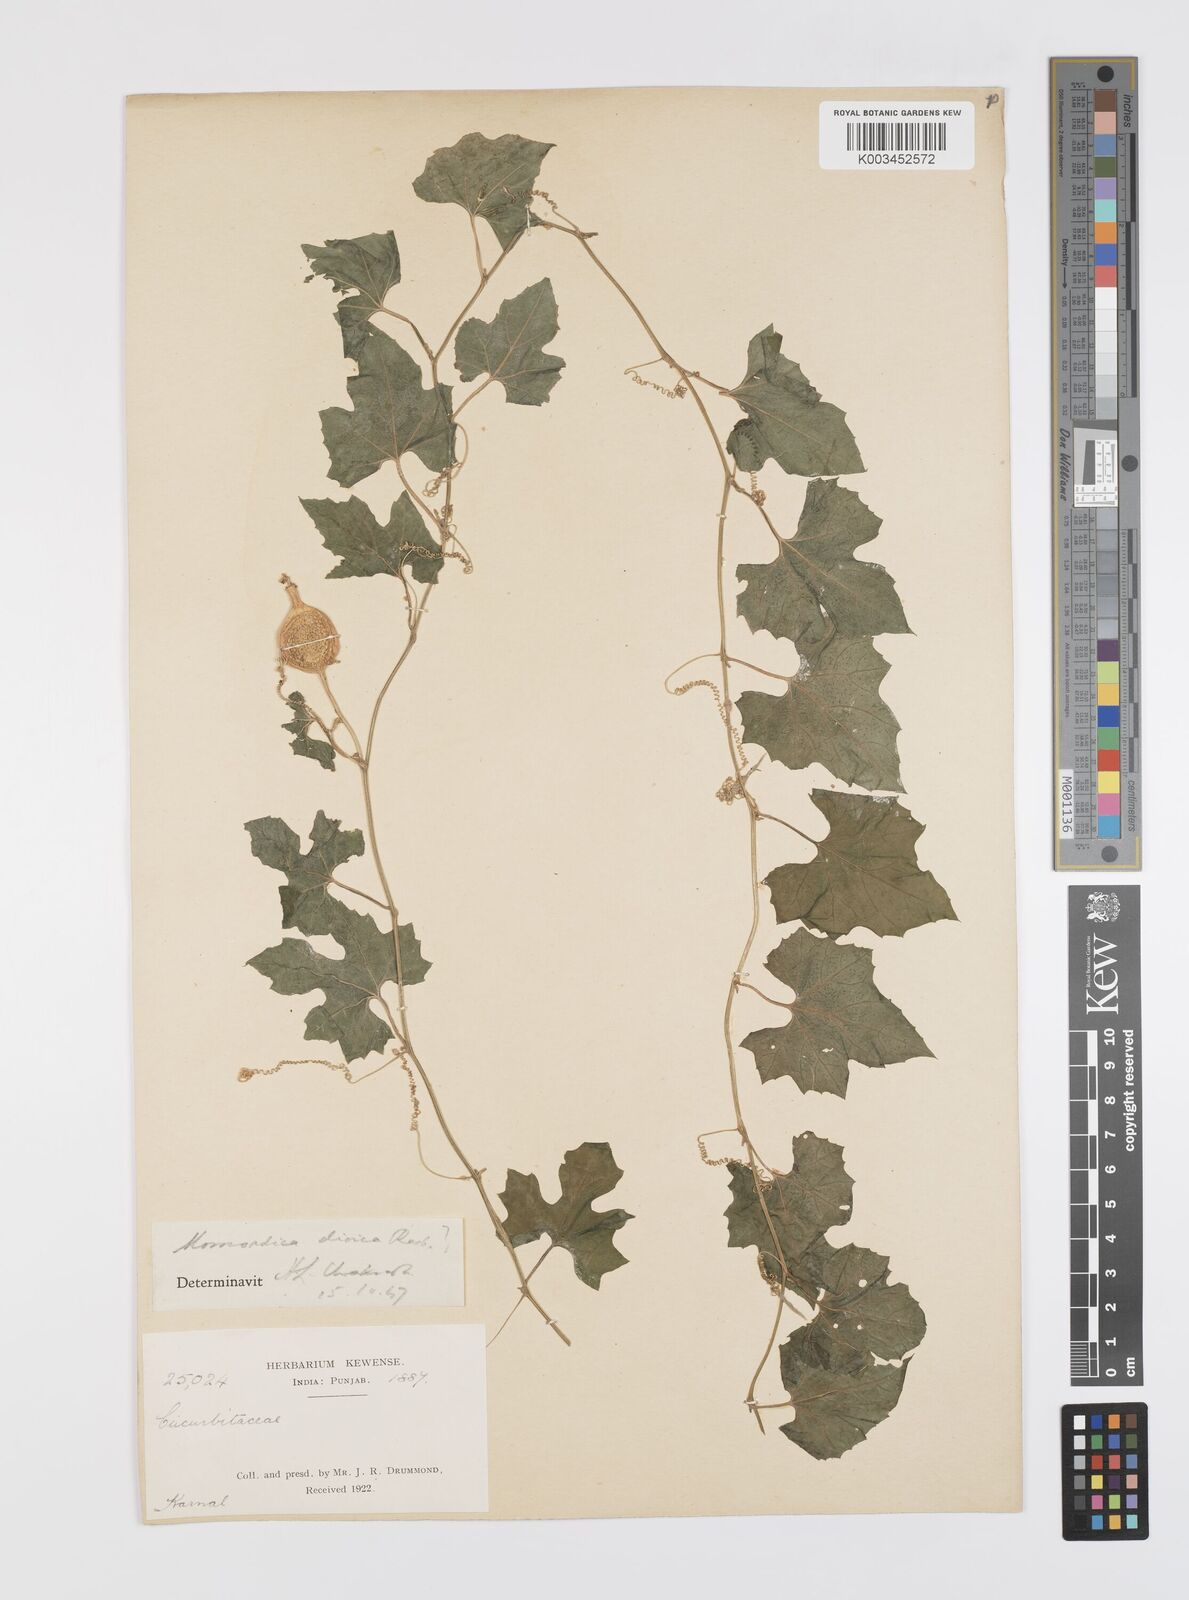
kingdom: Plantae
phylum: Tracheophyta
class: Magnoliopsida
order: Cucurbitales
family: Cucurbitaceae
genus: Momordica
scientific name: Momordica dioica
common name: Spine gourd
